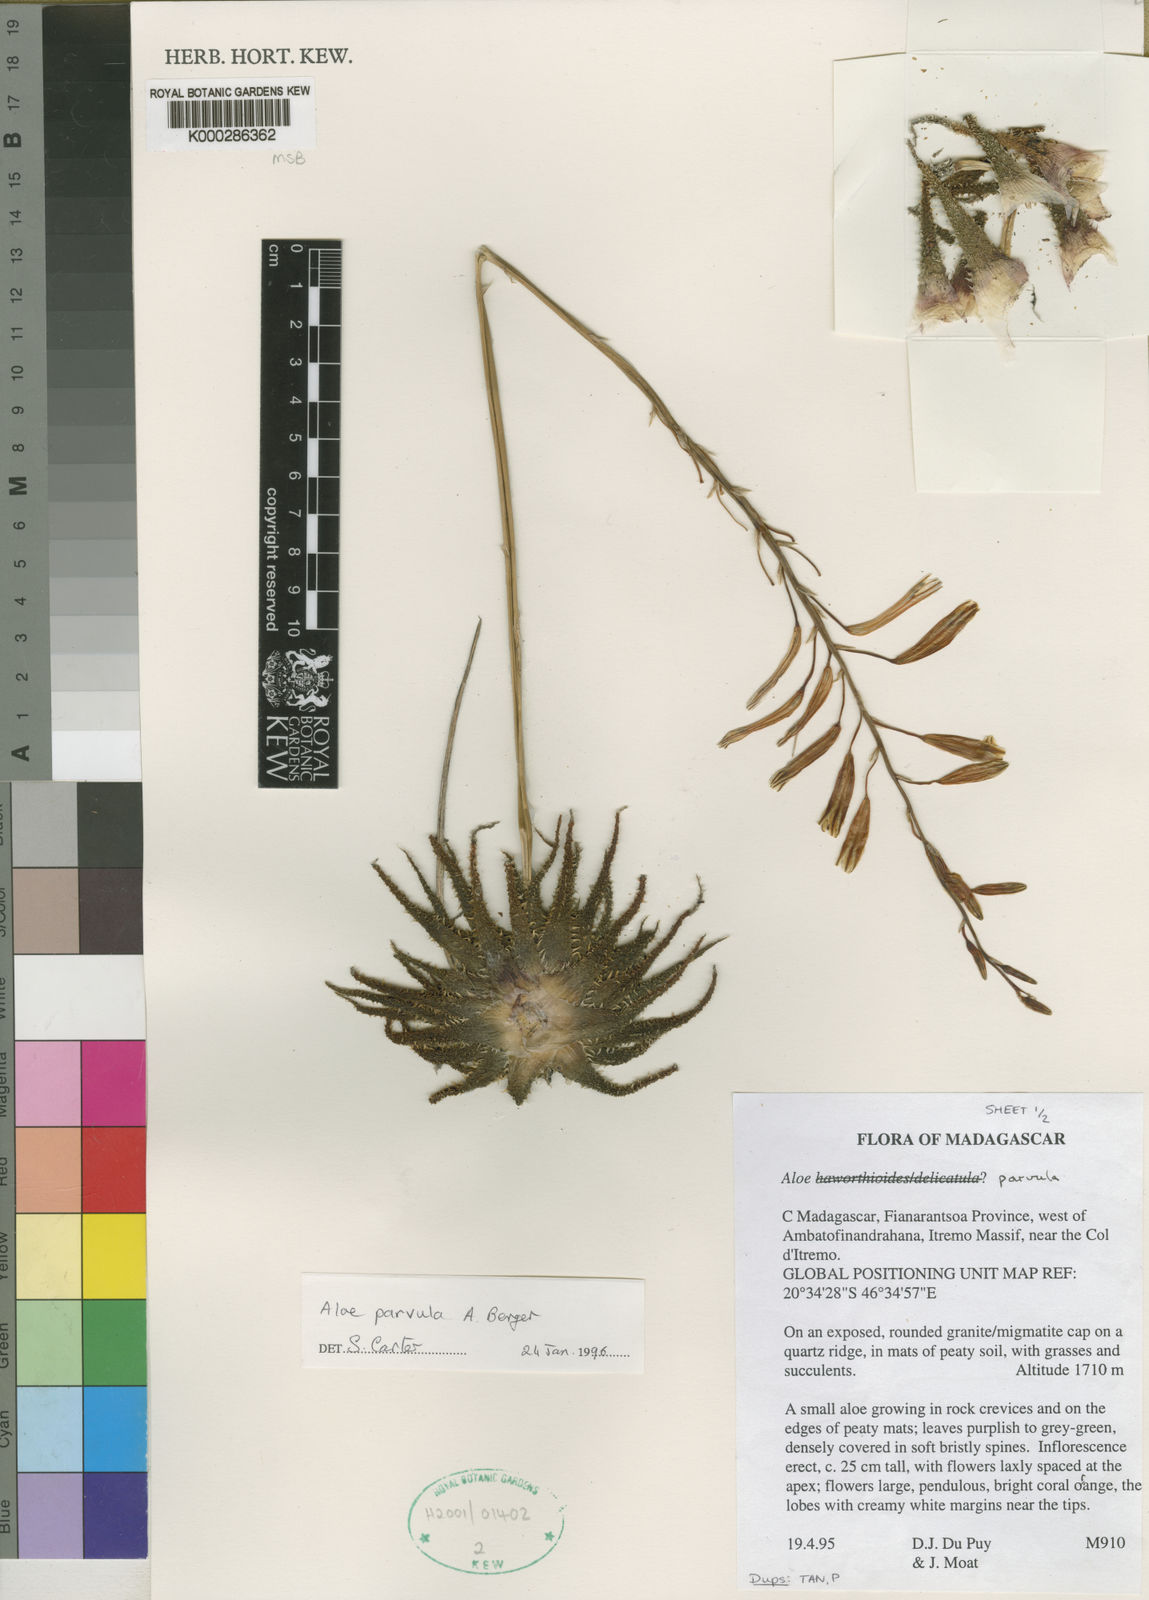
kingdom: Plantae
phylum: Tracheophyta
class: Liliopsida
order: Asparagales
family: Asphodelaceae
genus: Aloe
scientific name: Aloe parvula
